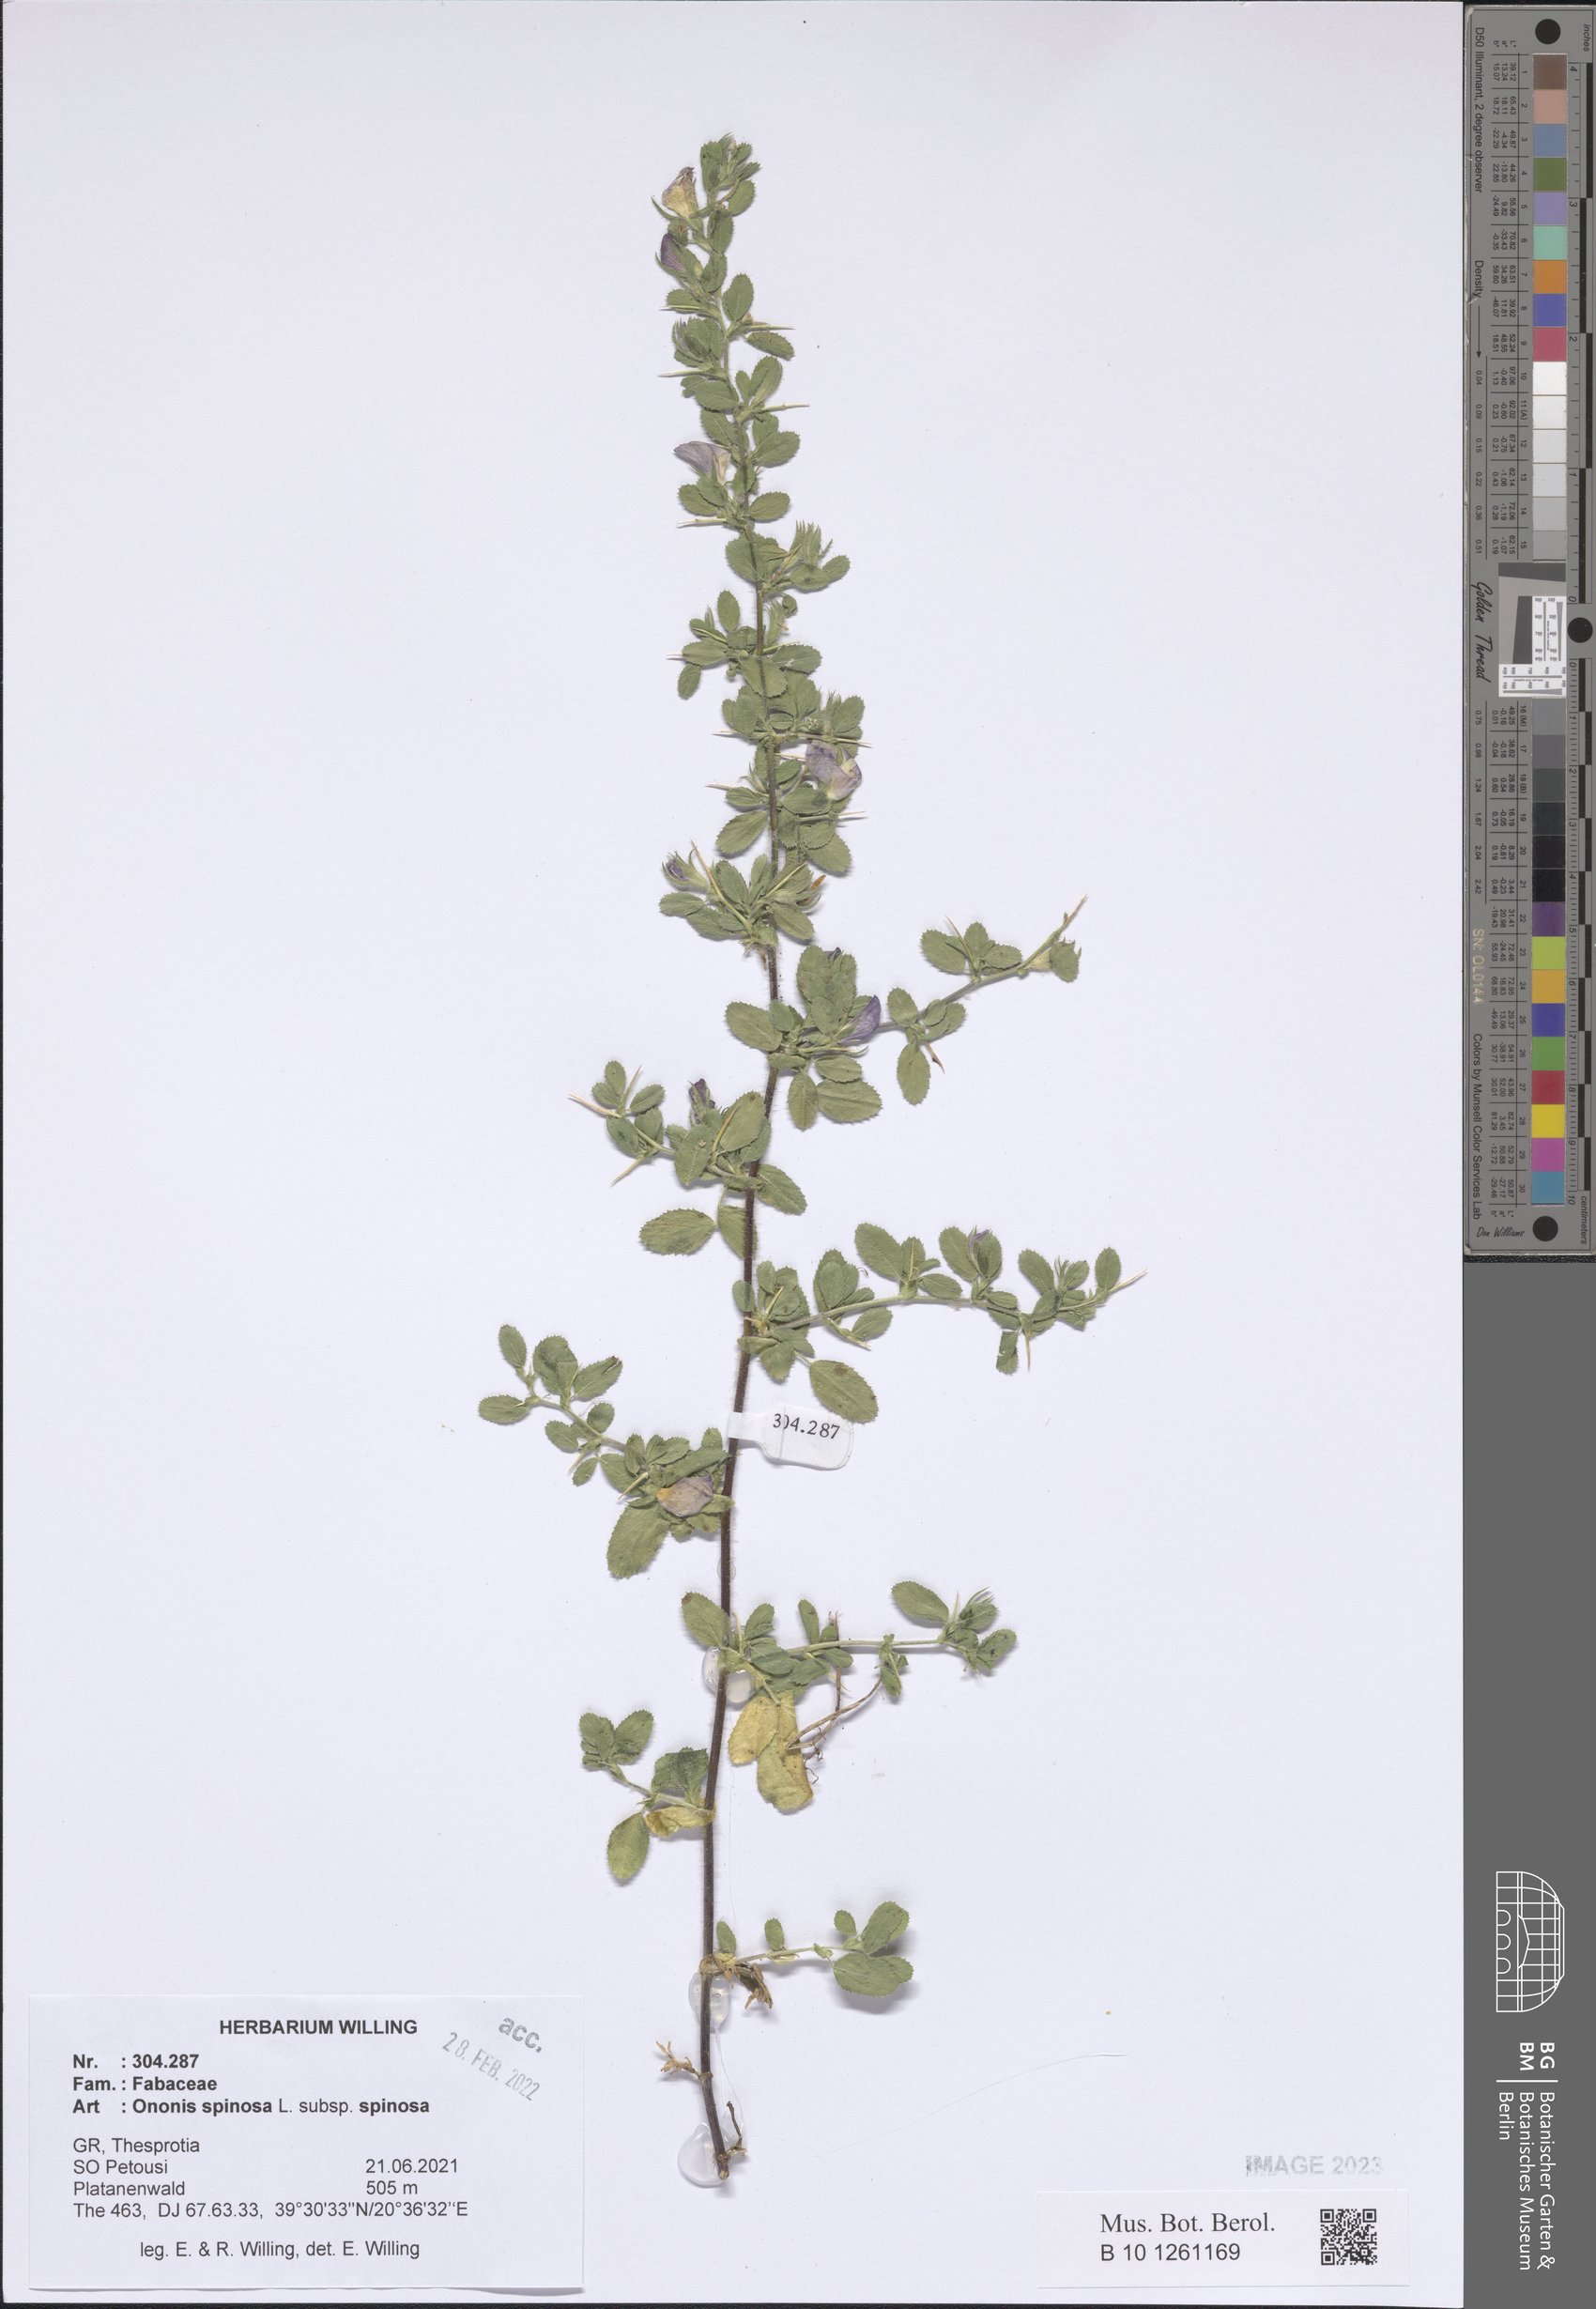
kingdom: Plantae
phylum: Tracheophyta
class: Magnoliopsida
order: Fabales
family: Fabaceae
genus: Ononis
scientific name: Ononis spinosa
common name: Spiny restharrow
